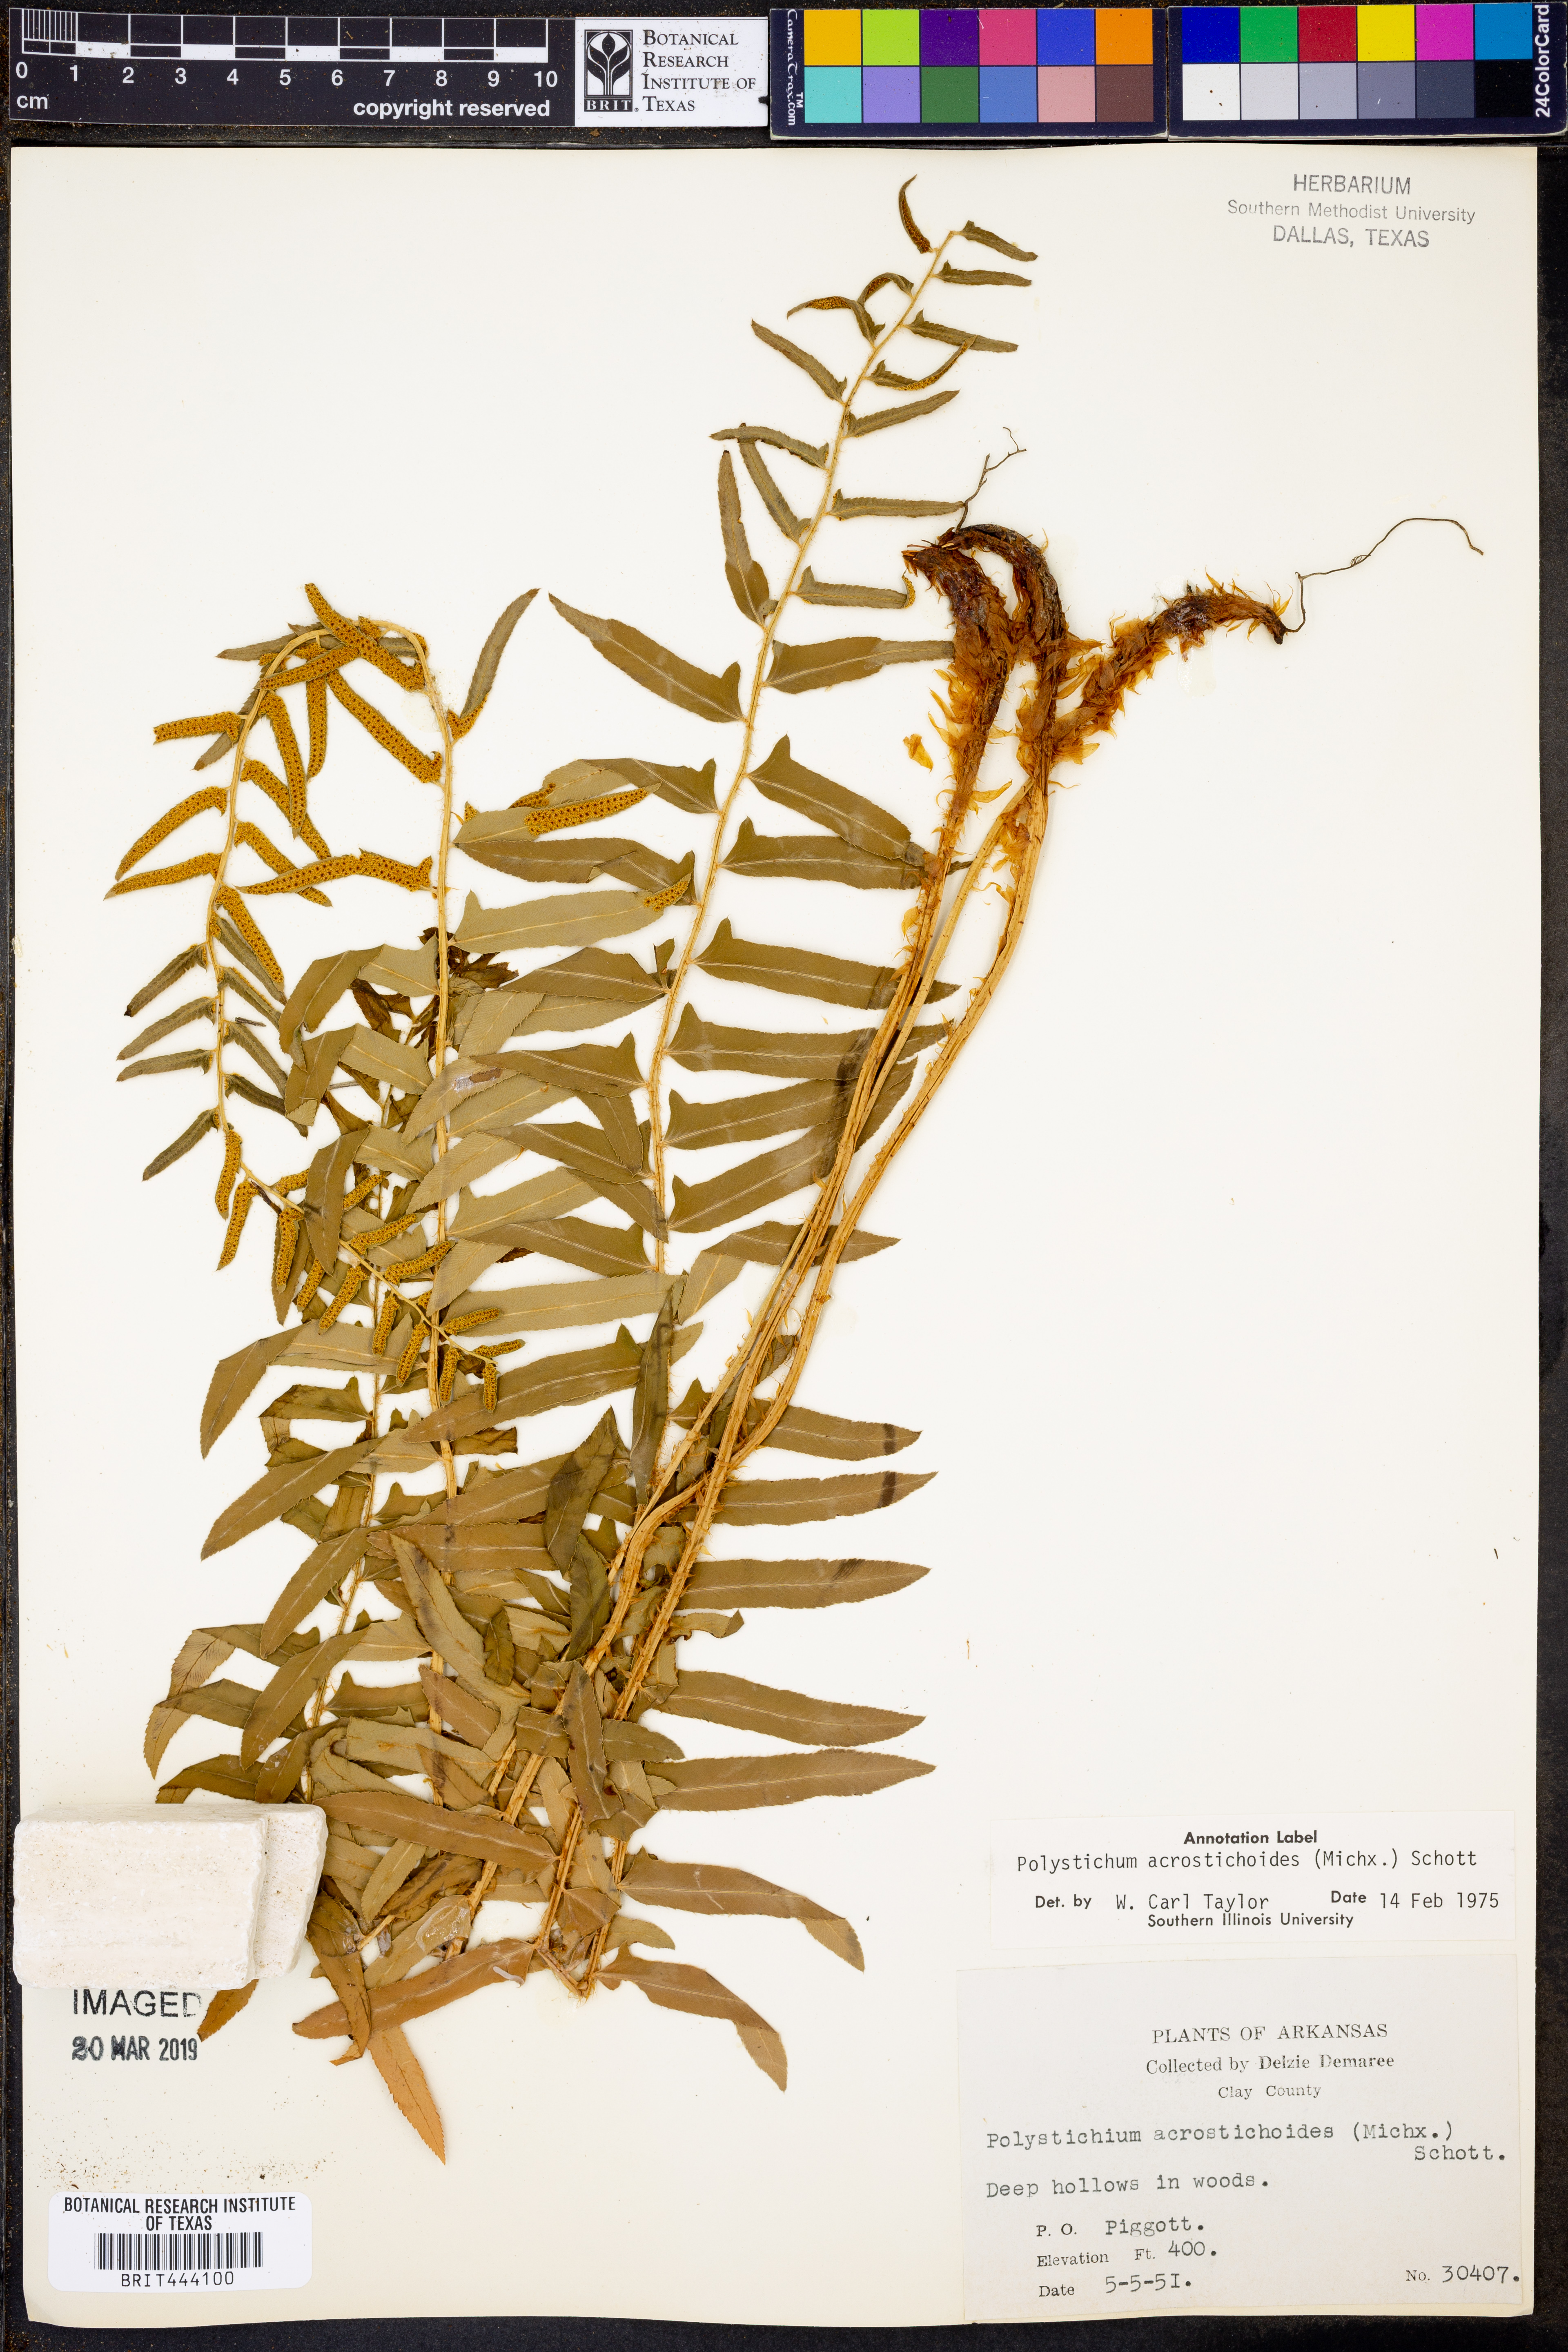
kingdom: Plantae
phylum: Tracheophyta
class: Polypodiopsida
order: Polypodiales
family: Dryopteridaceae
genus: Polystichum
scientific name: Polystichum acrostichoides
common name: Christmas fern
